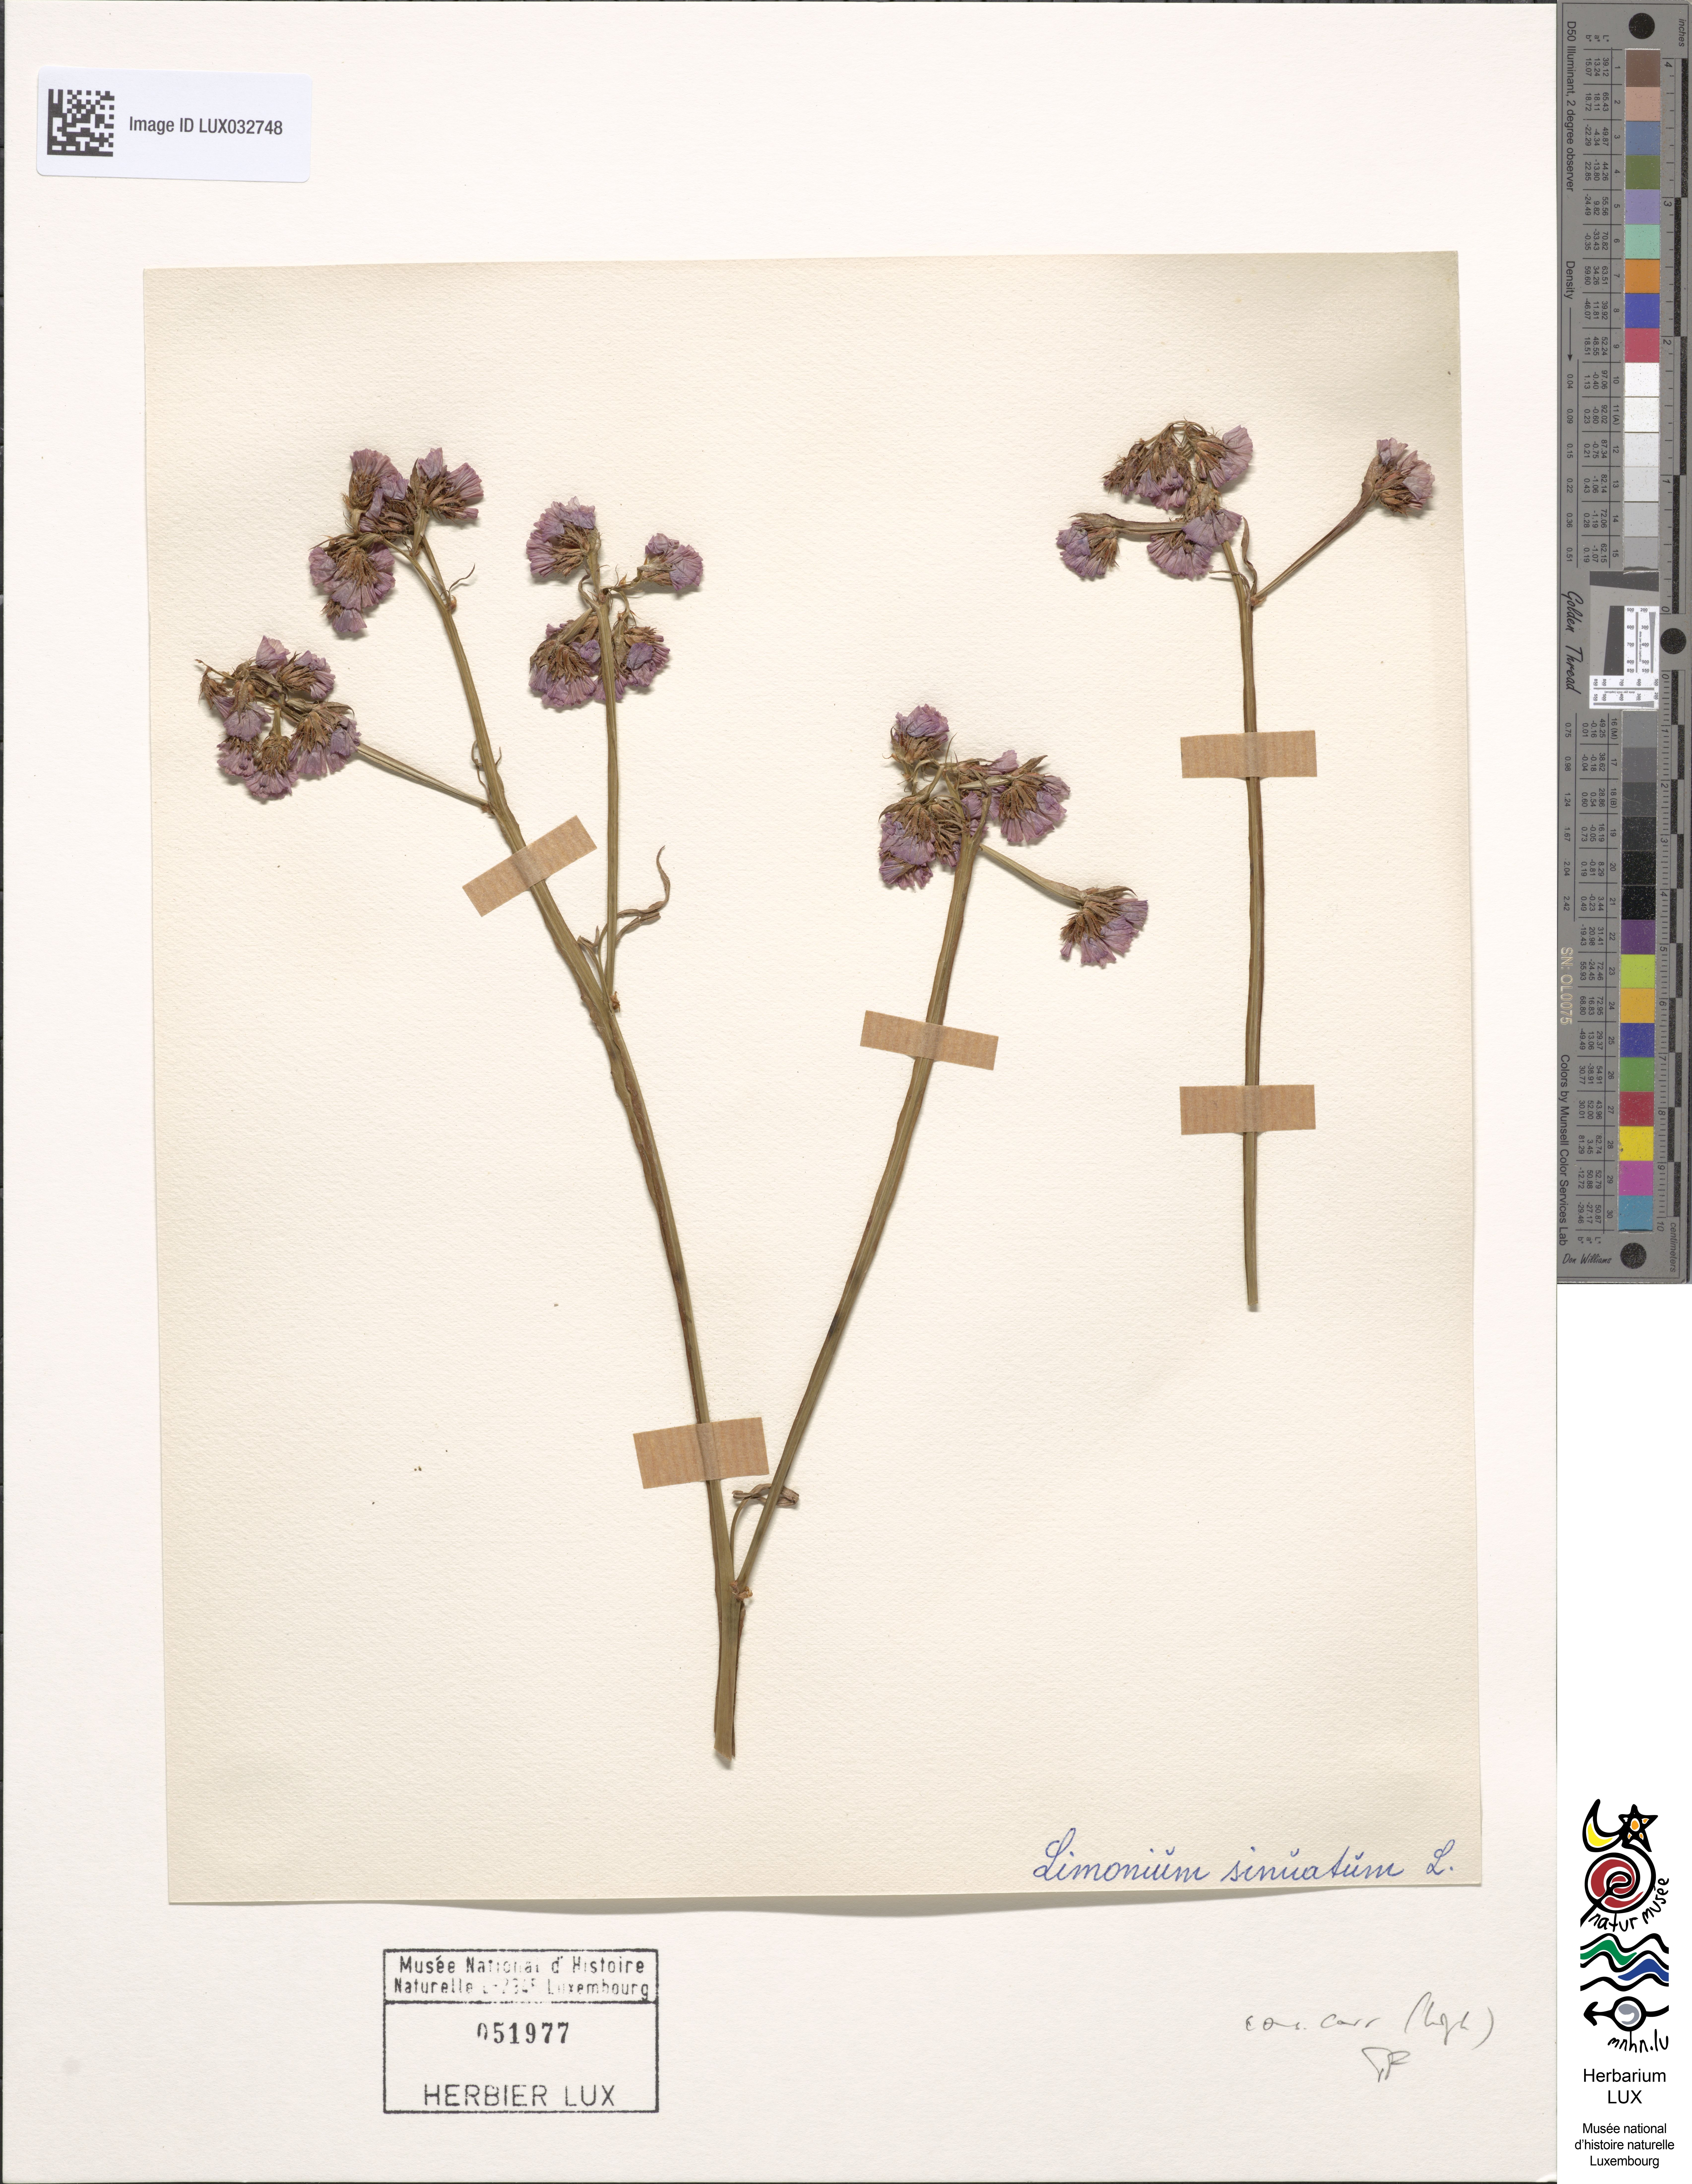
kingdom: Plantae
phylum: Tracheophyta
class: Magnoliopsida
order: Caryophyllales
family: Plumbaginaceae
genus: Limonium
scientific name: Limonium sinuatum
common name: Statice
